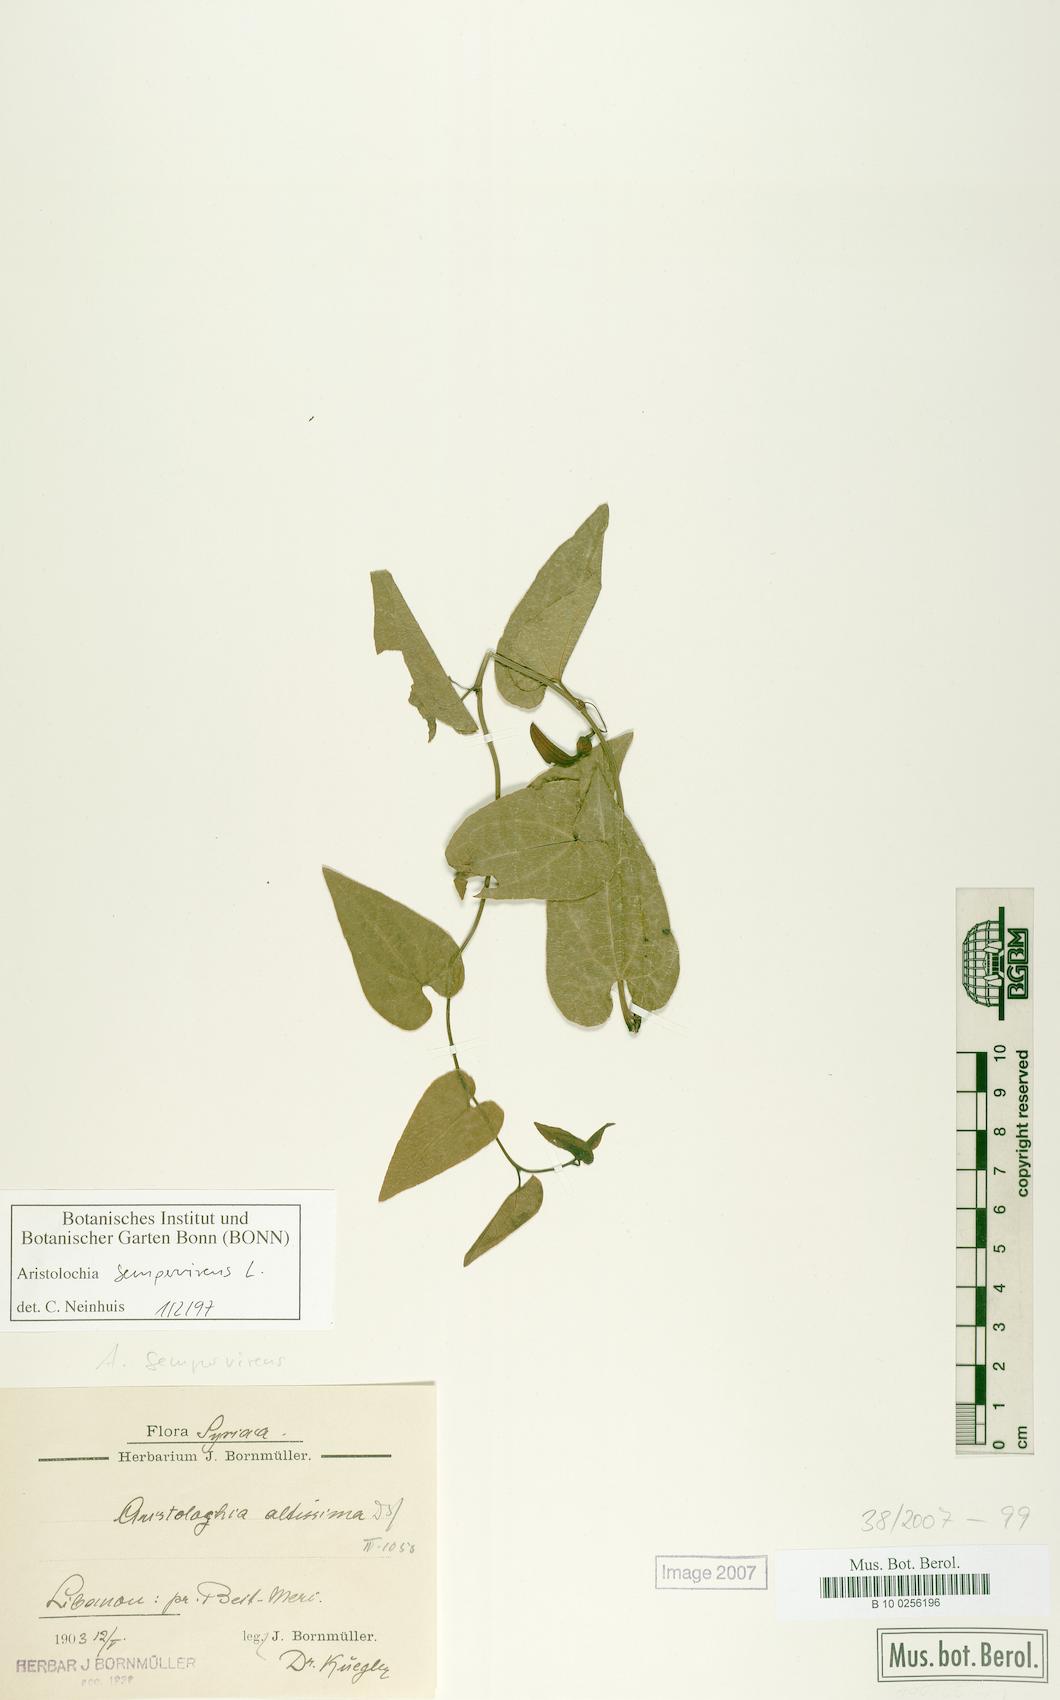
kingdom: Plantae
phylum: Tracheophyta
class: Magnoliopsida
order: Piperales
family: Aristolochiaceae
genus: Aristolochia
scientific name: Aristolochia sempervirens
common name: Long birthwort
